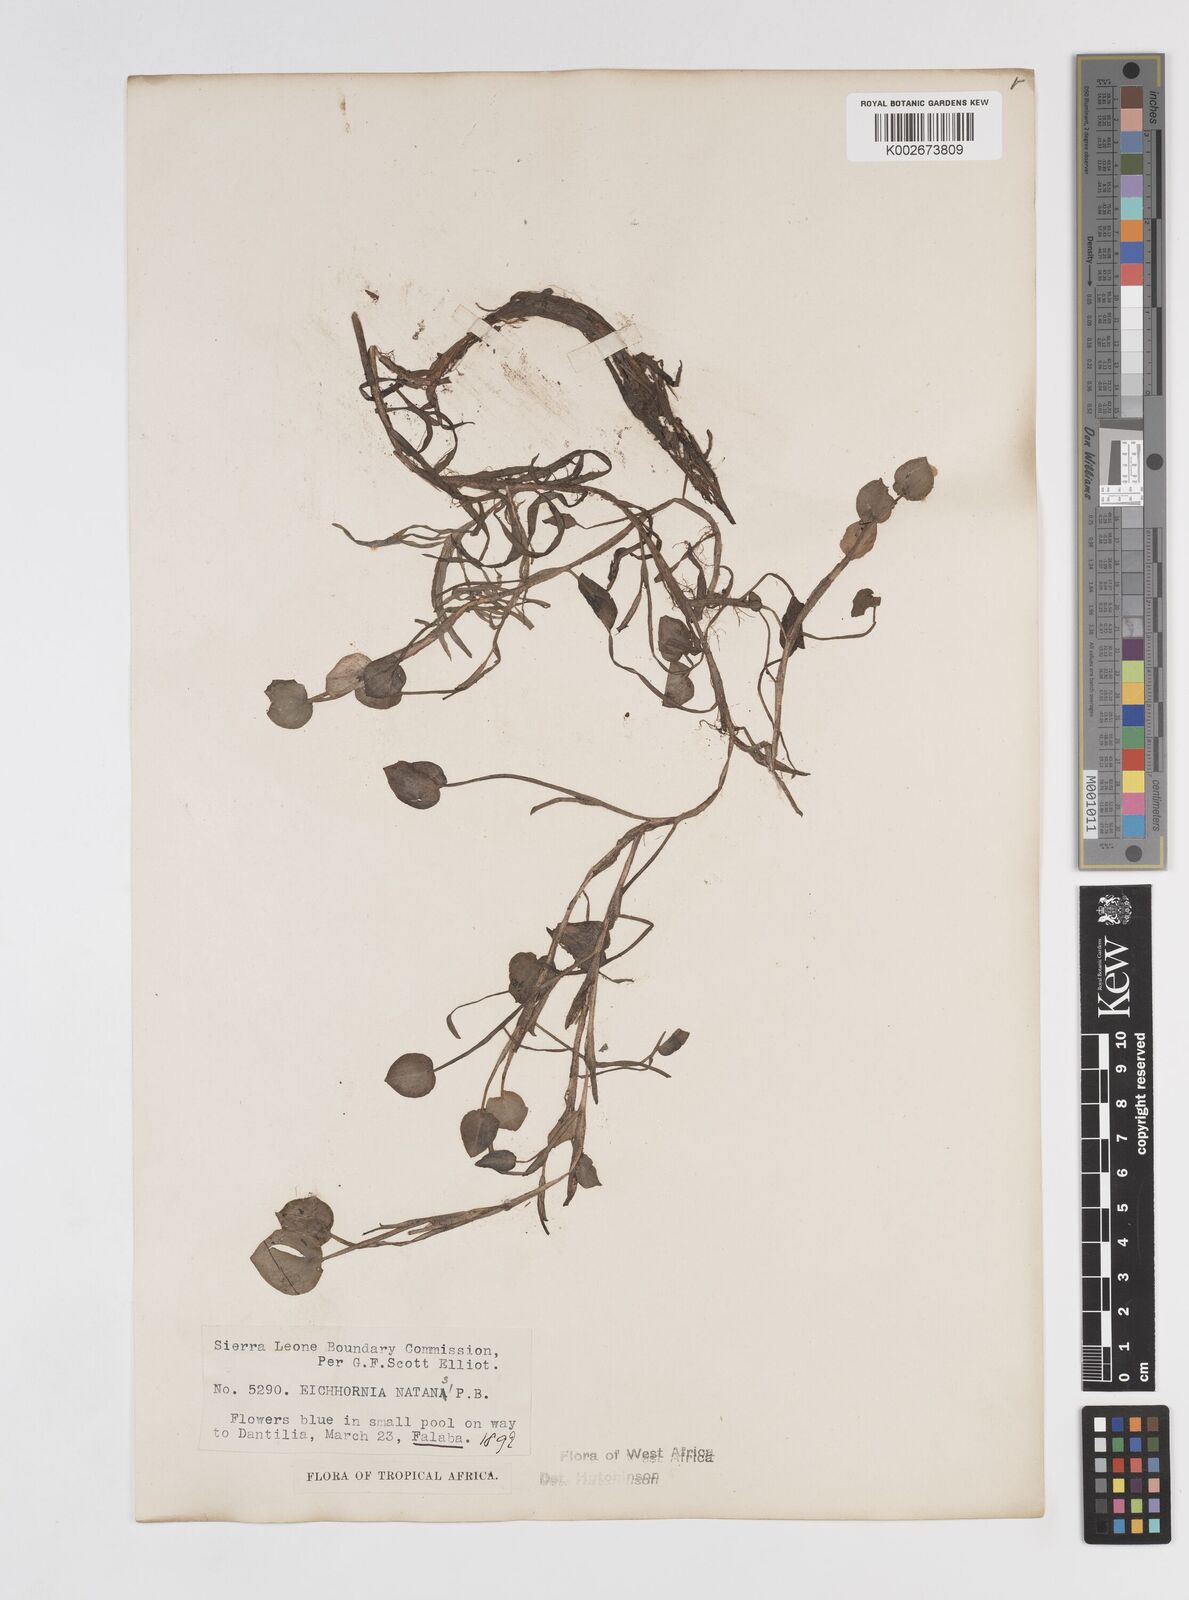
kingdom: Plantae
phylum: Tracheophyta
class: Liliopsida
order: Commelinales
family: Pontederiaceae
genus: Pontederia
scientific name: Pontederia diversifolia
